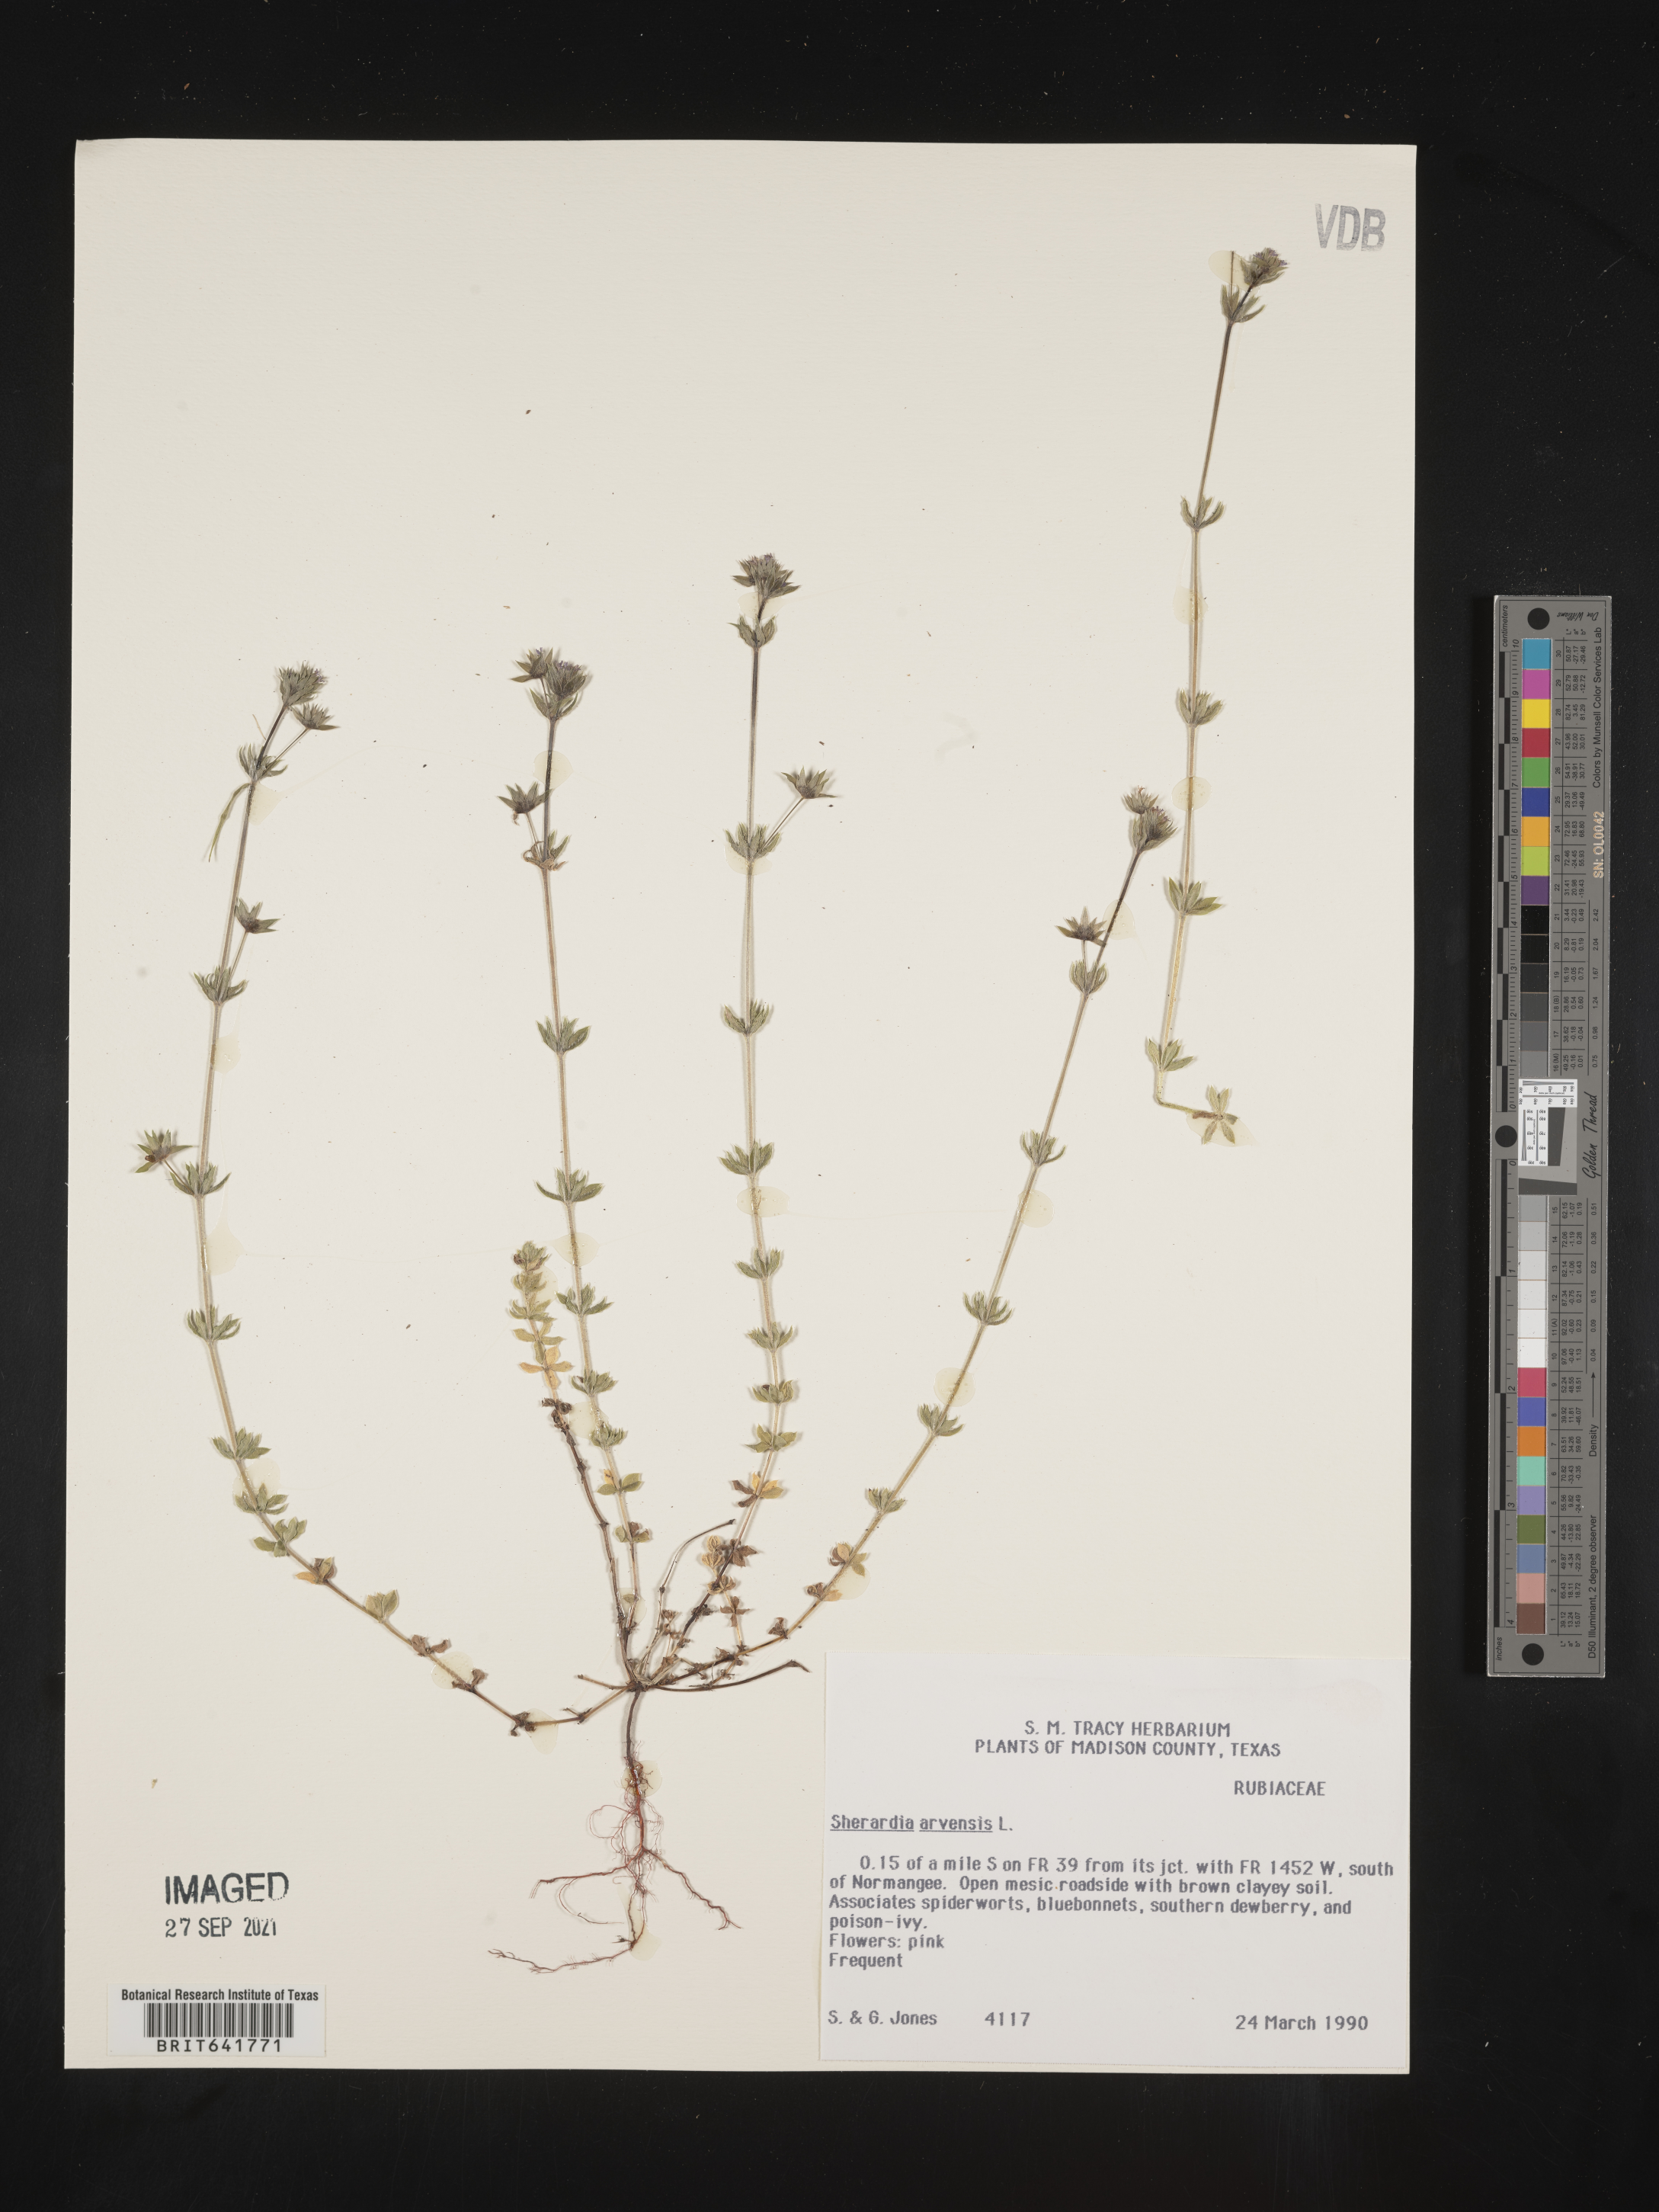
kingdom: Plantae
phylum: Tracheophyta
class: Magnoliopsida
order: Gentianales
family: Rubiaceae
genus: Sherardia
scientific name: Sherardia arvensis
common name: Field madder
